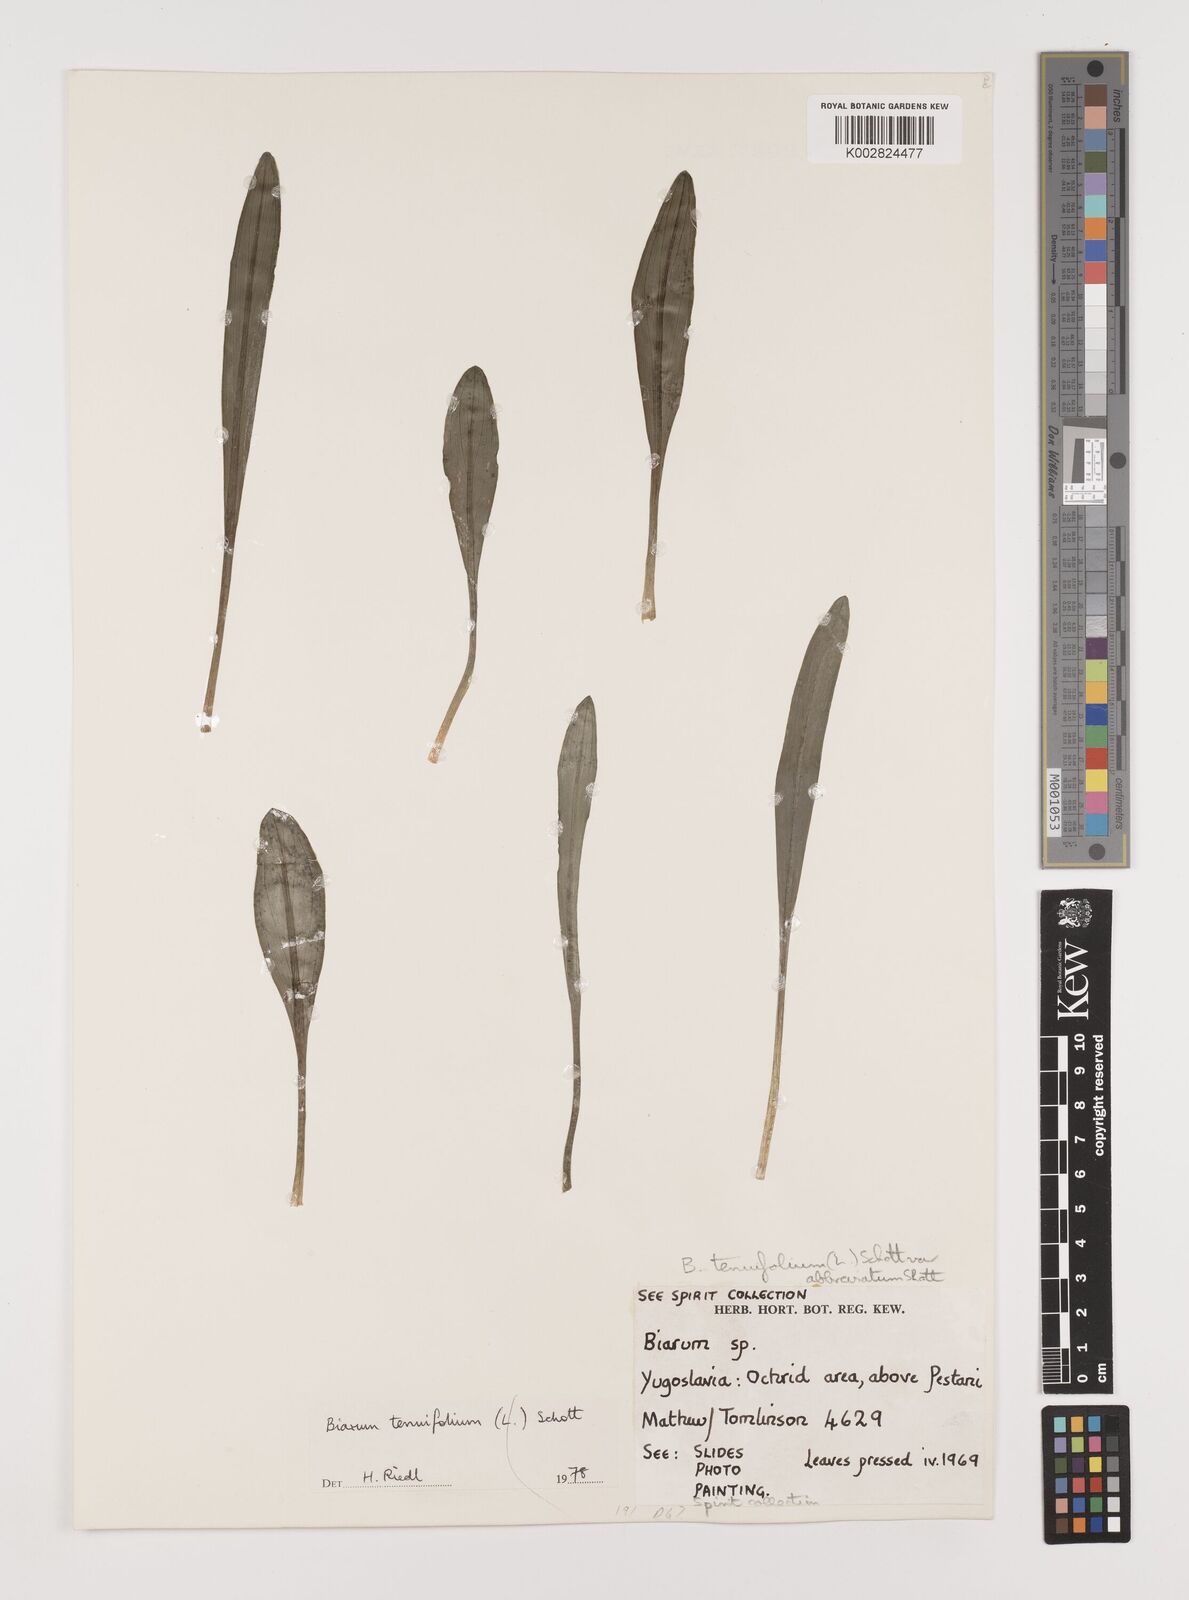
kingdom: Plantae
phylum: Tracheophyta
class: Liliopsida
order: Alismatales
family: Araceae
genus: Biarum
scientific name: Biarum tenuifolium
